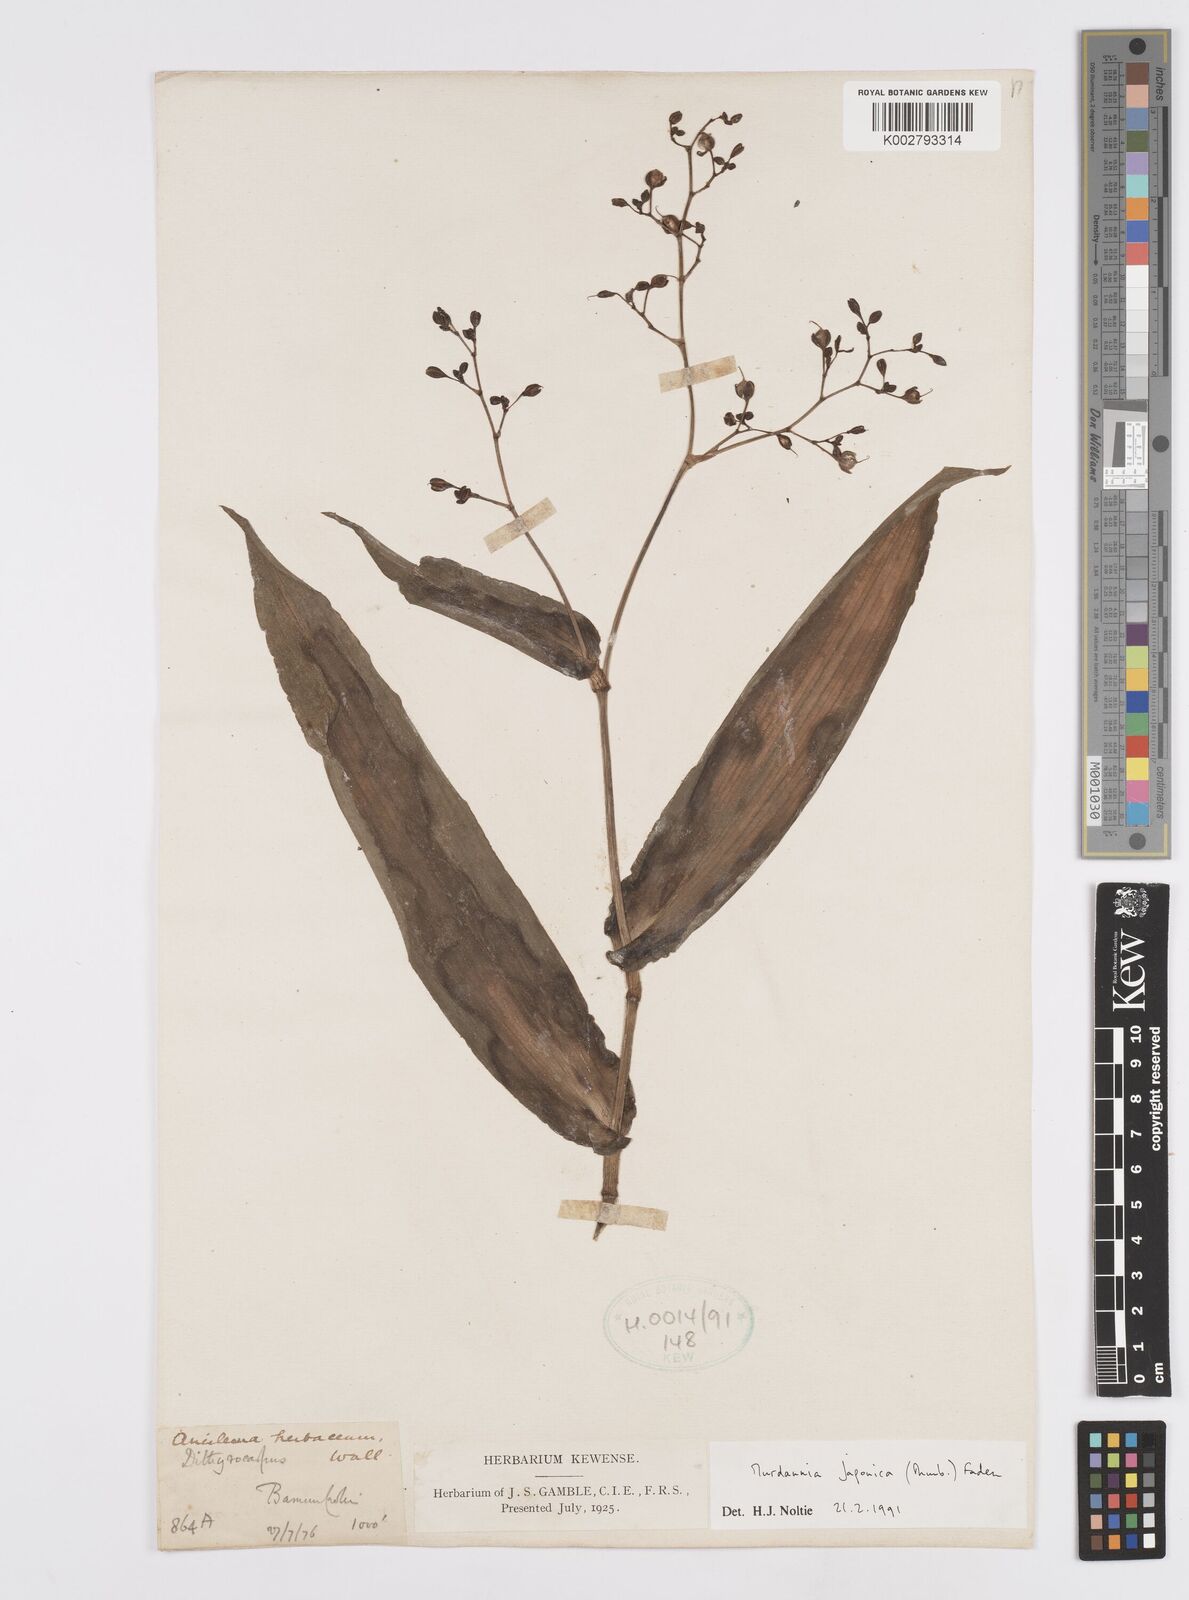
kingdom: Plantae
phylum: Tracheophyta
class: Liliopsida
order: Commelinales
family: Commelinaceae
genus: Murdannia
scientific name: Murdannia japonica
